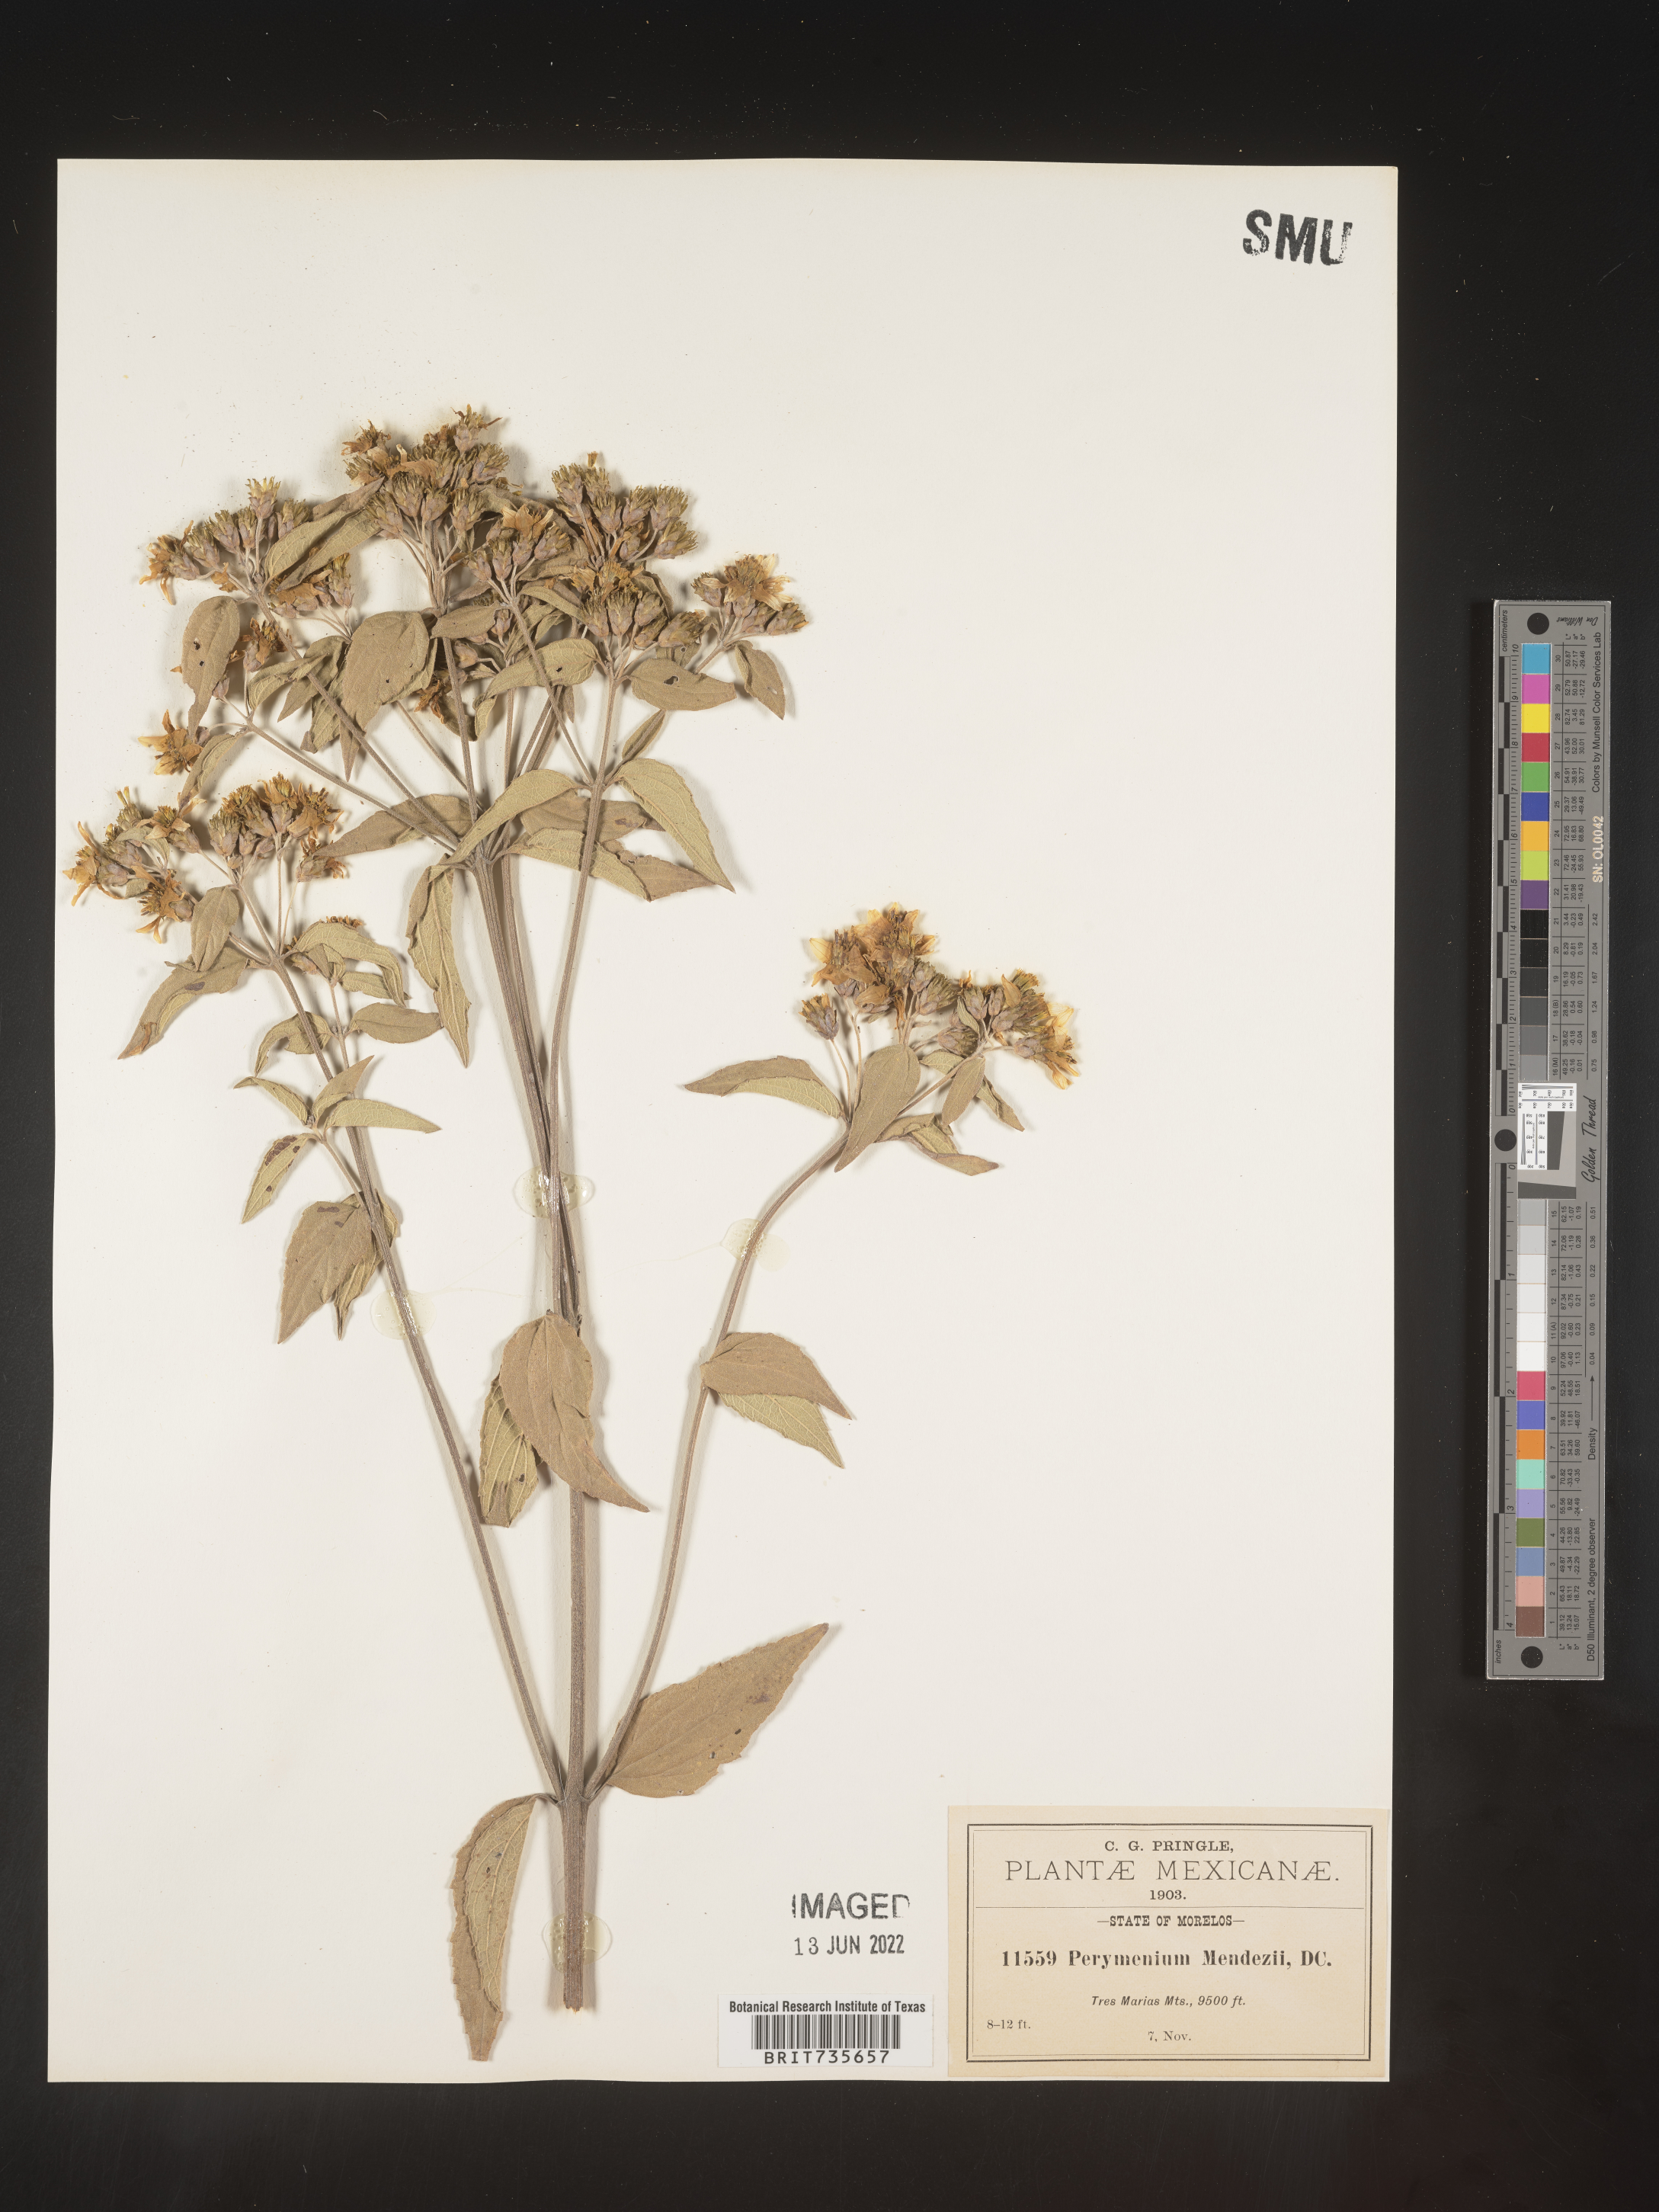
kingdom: Plantae
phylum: Tracheophyta
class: Magnoliopsida
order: Asterales
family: Asteraceae
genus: Perymenium
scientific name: Perymenium
